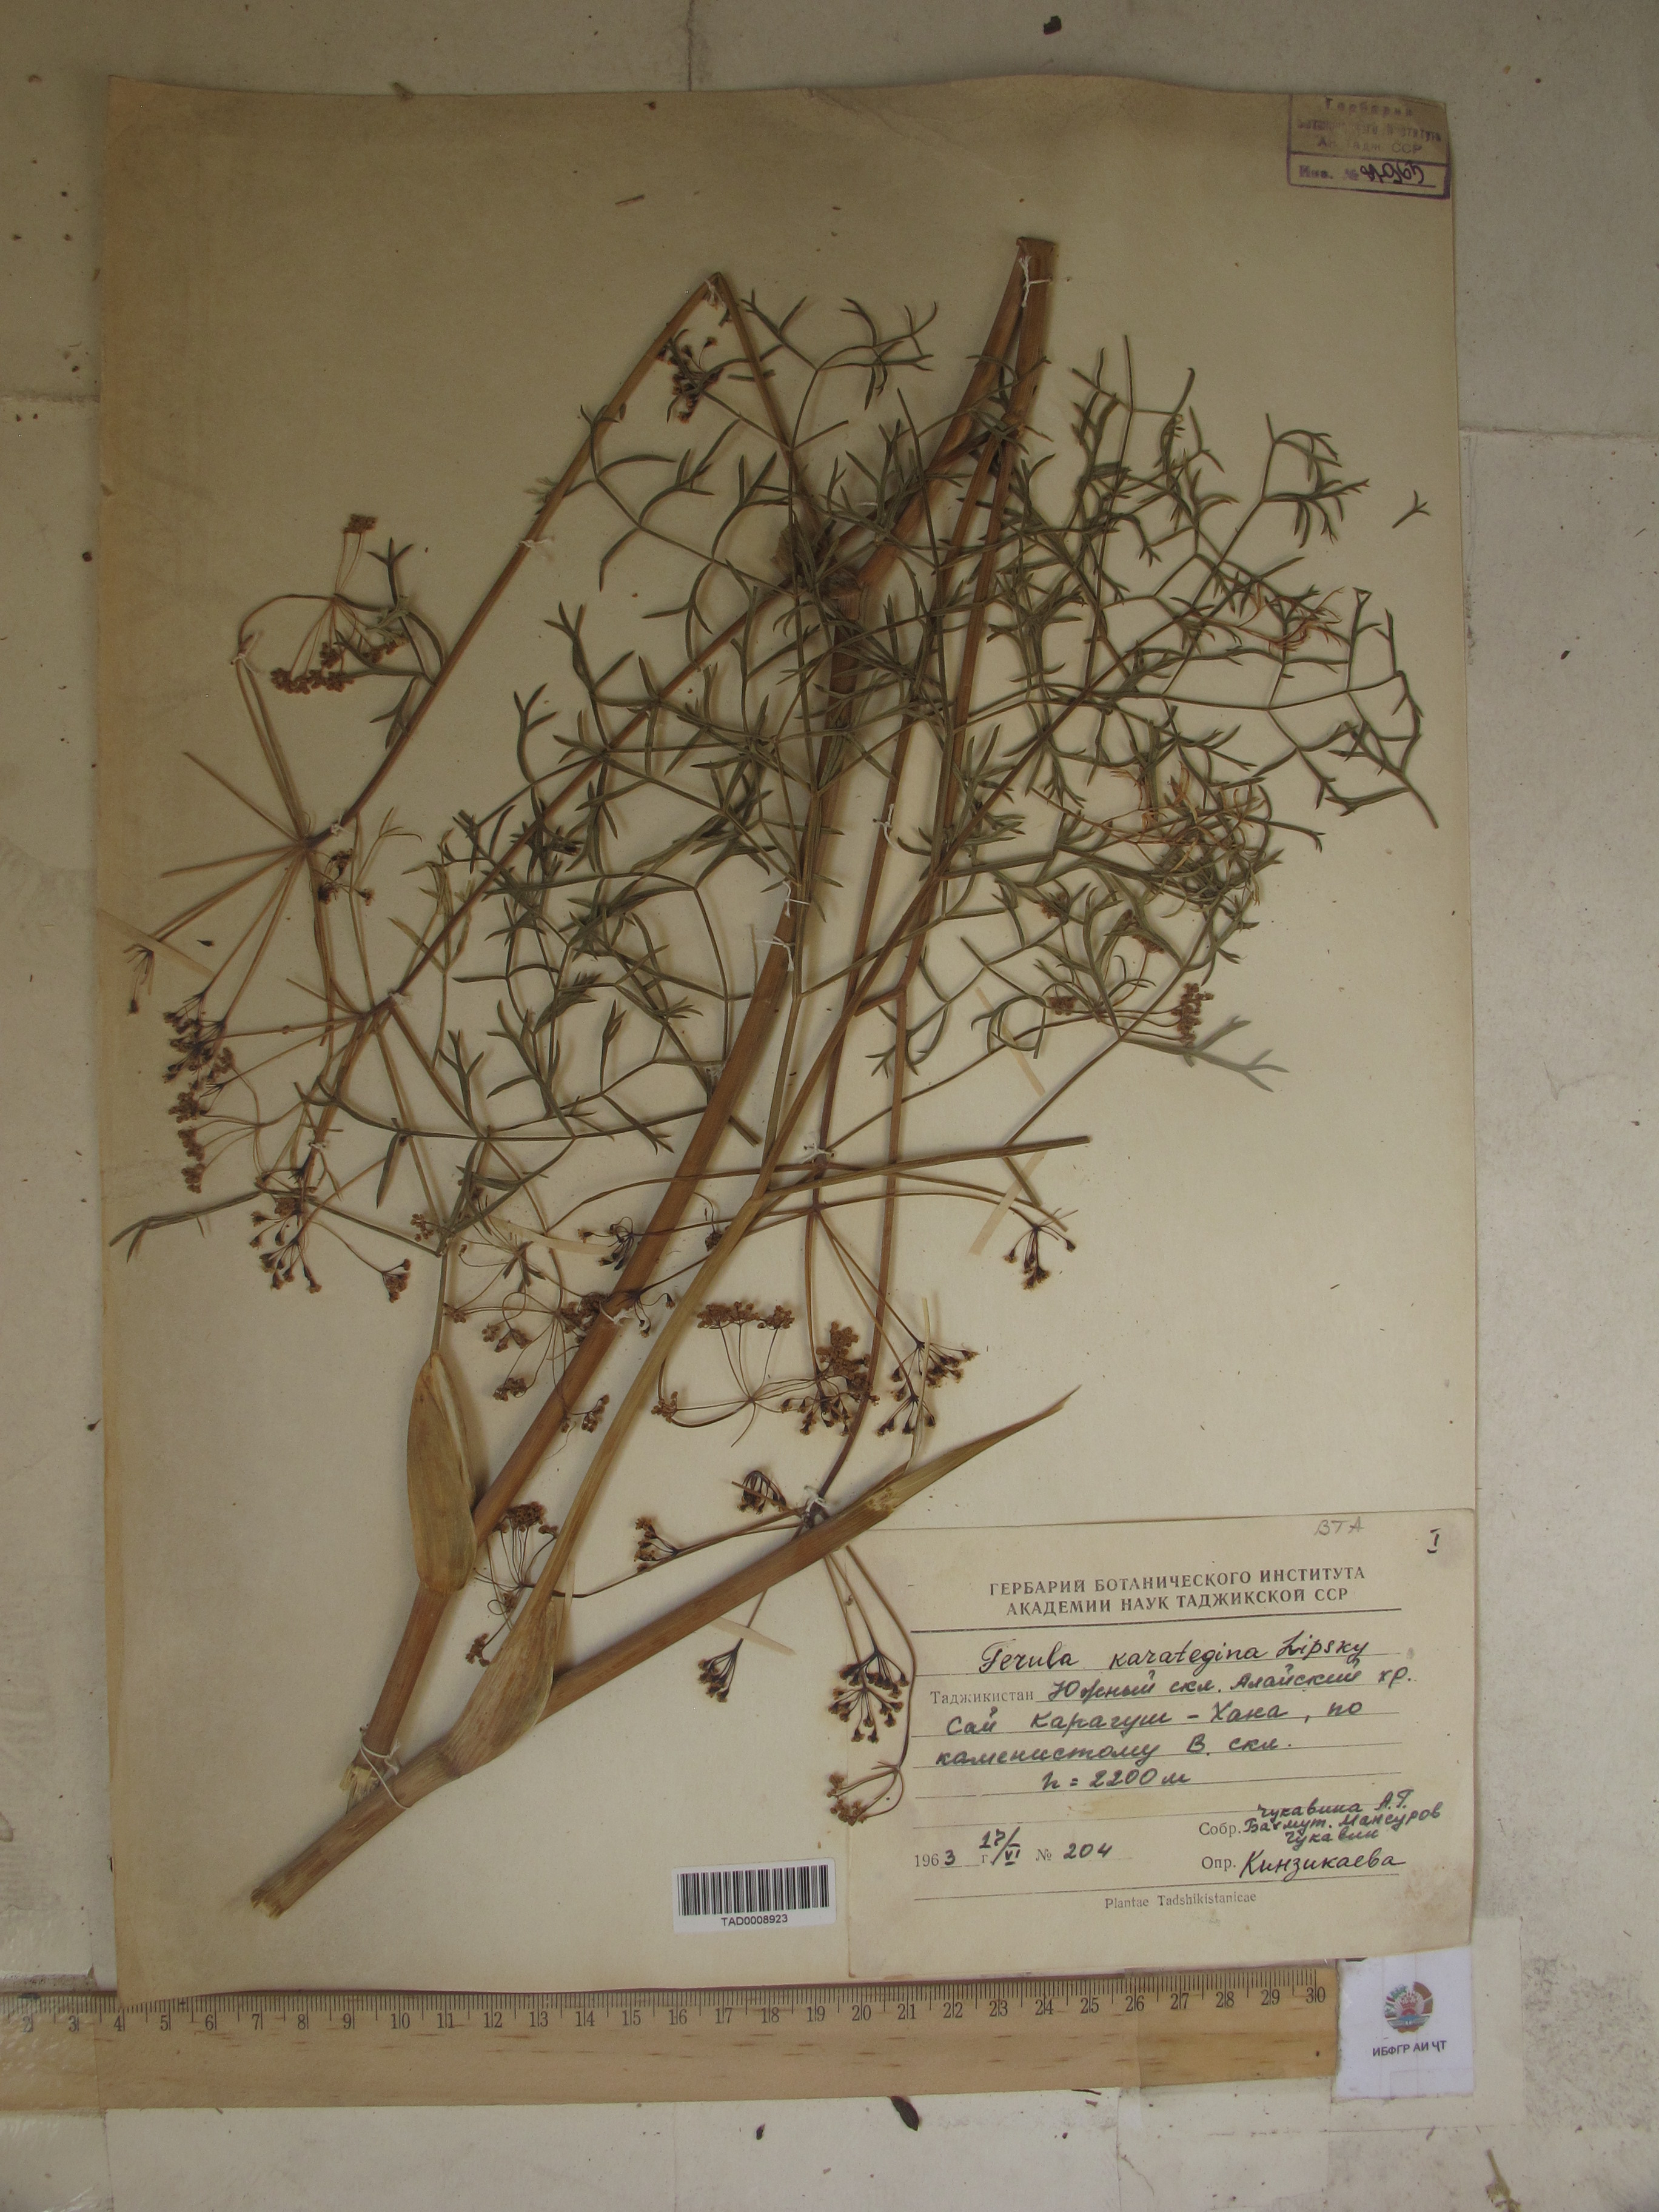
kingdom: Plantae
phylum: Tracheophyta
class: Magnoliopsida
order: Apiales
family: Apiaceae
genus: Ferula
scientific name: Ferula karategina
